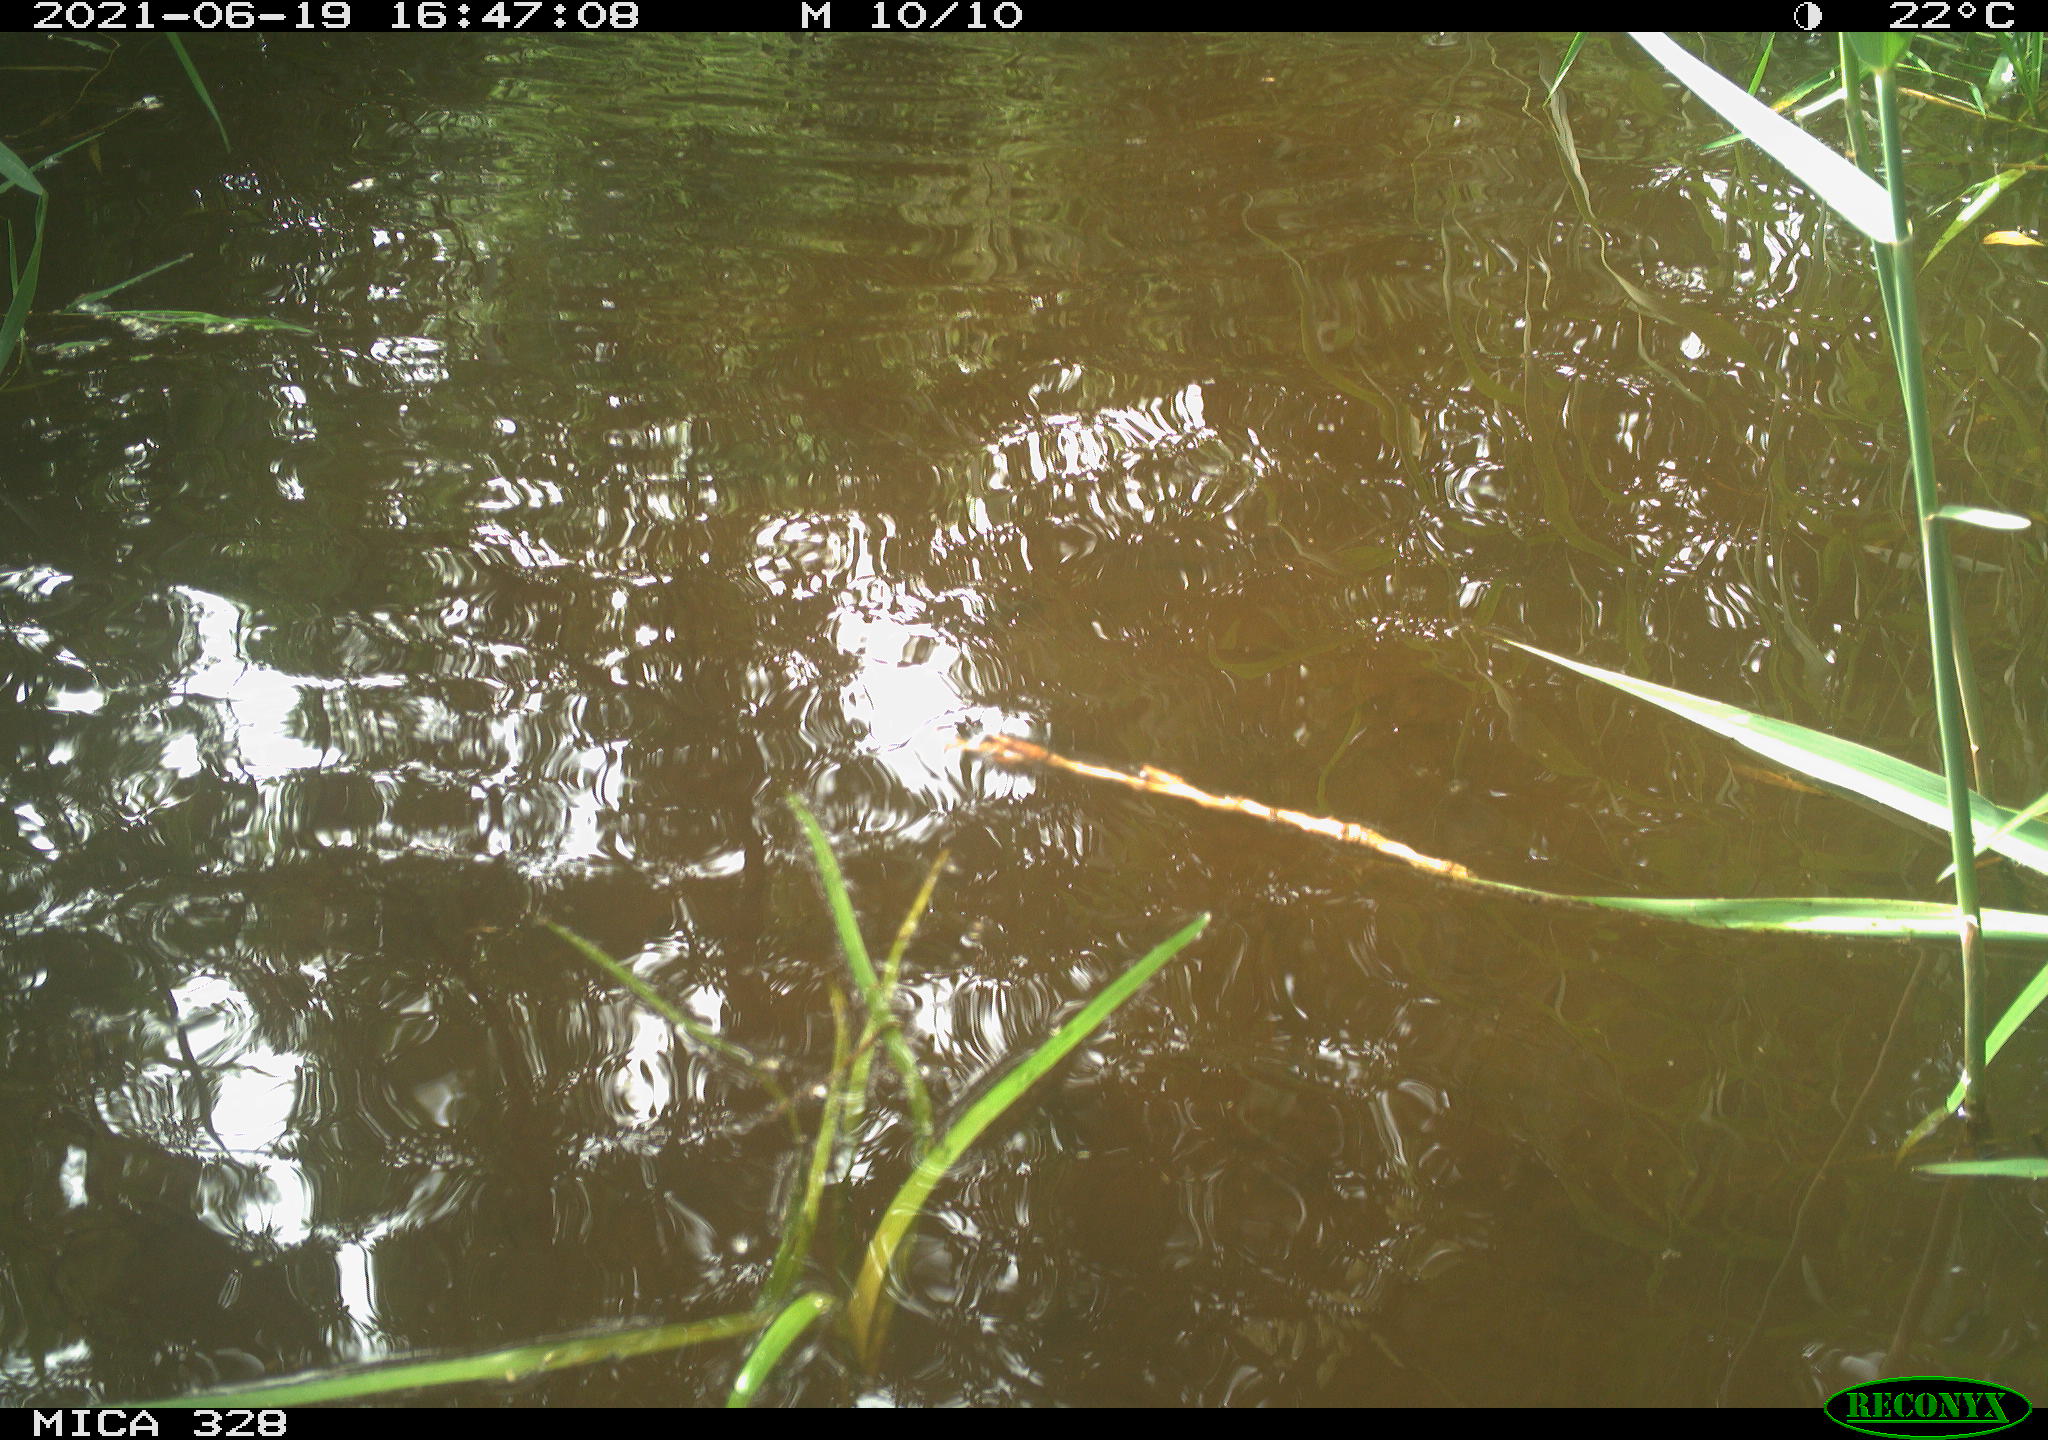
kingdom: Animalia
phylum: Chordata
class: Aves
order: Anseriformes
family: Anatidae
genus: Aix
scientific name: Aix galericulata
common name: Mandarin duck
